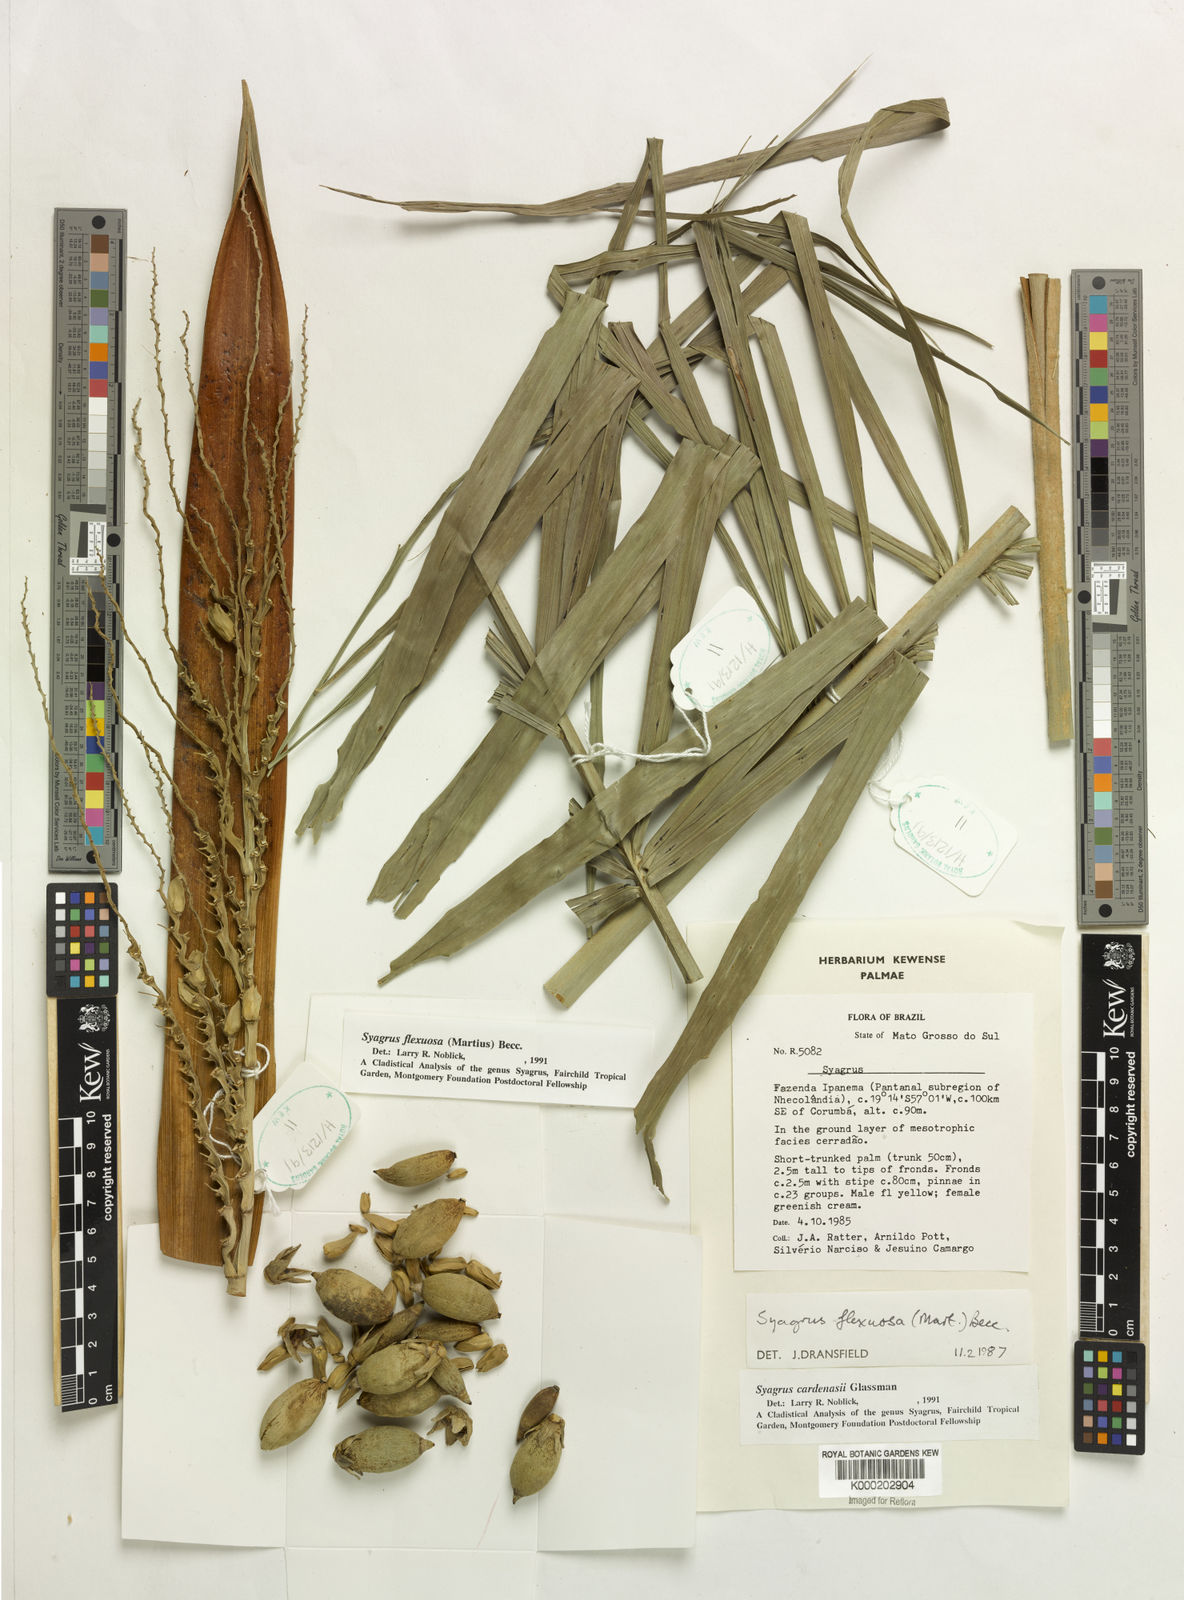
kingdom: Plantae
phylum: Tracheophyta
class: Liliopsida
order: Arecales
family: Arecaceae
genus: Syagrus
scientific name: Syagrus cardenasii
